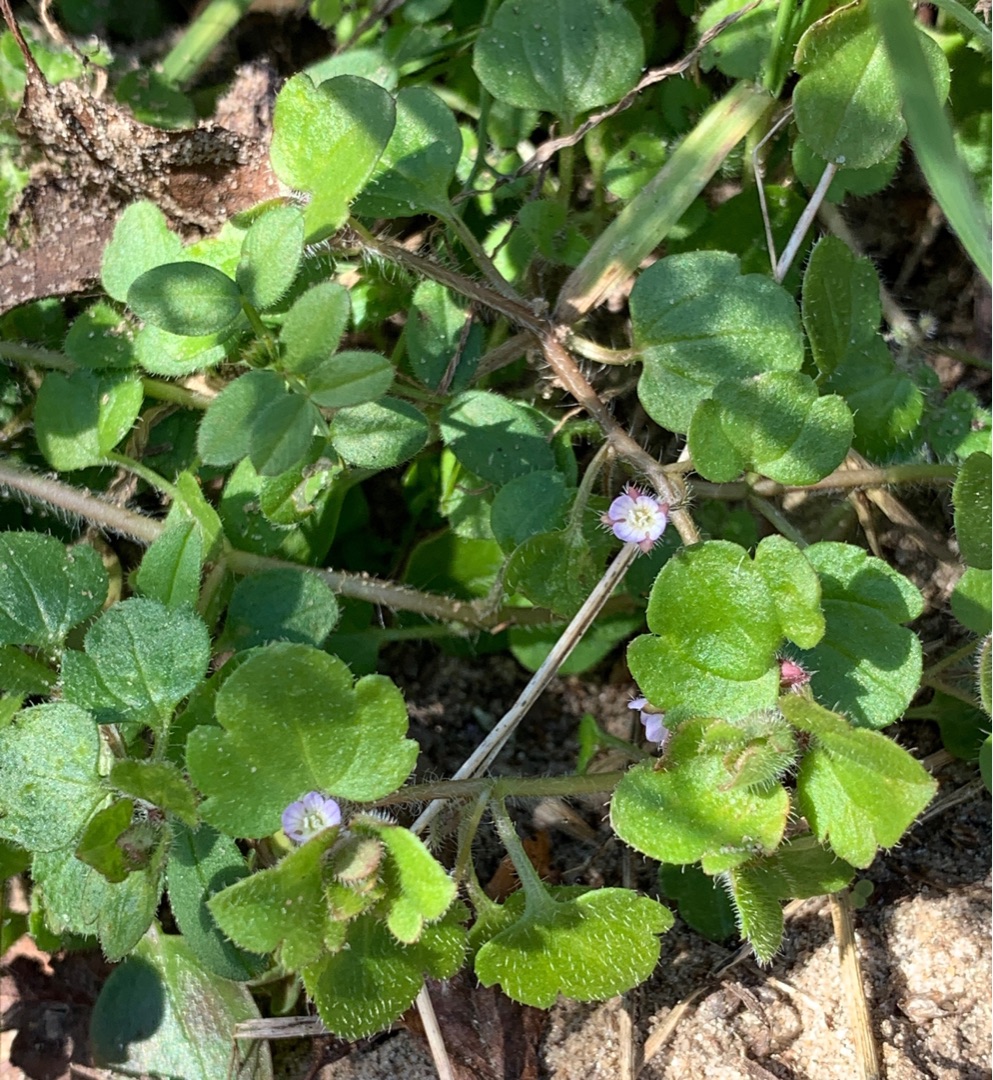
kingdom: Plantae
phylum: Tracheophyta
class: Magnoliopsida
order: Lamiales
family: Plantaginaceae
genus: Veronica
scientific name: Veronica hederifolia
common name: Vedbend-ærenpris
